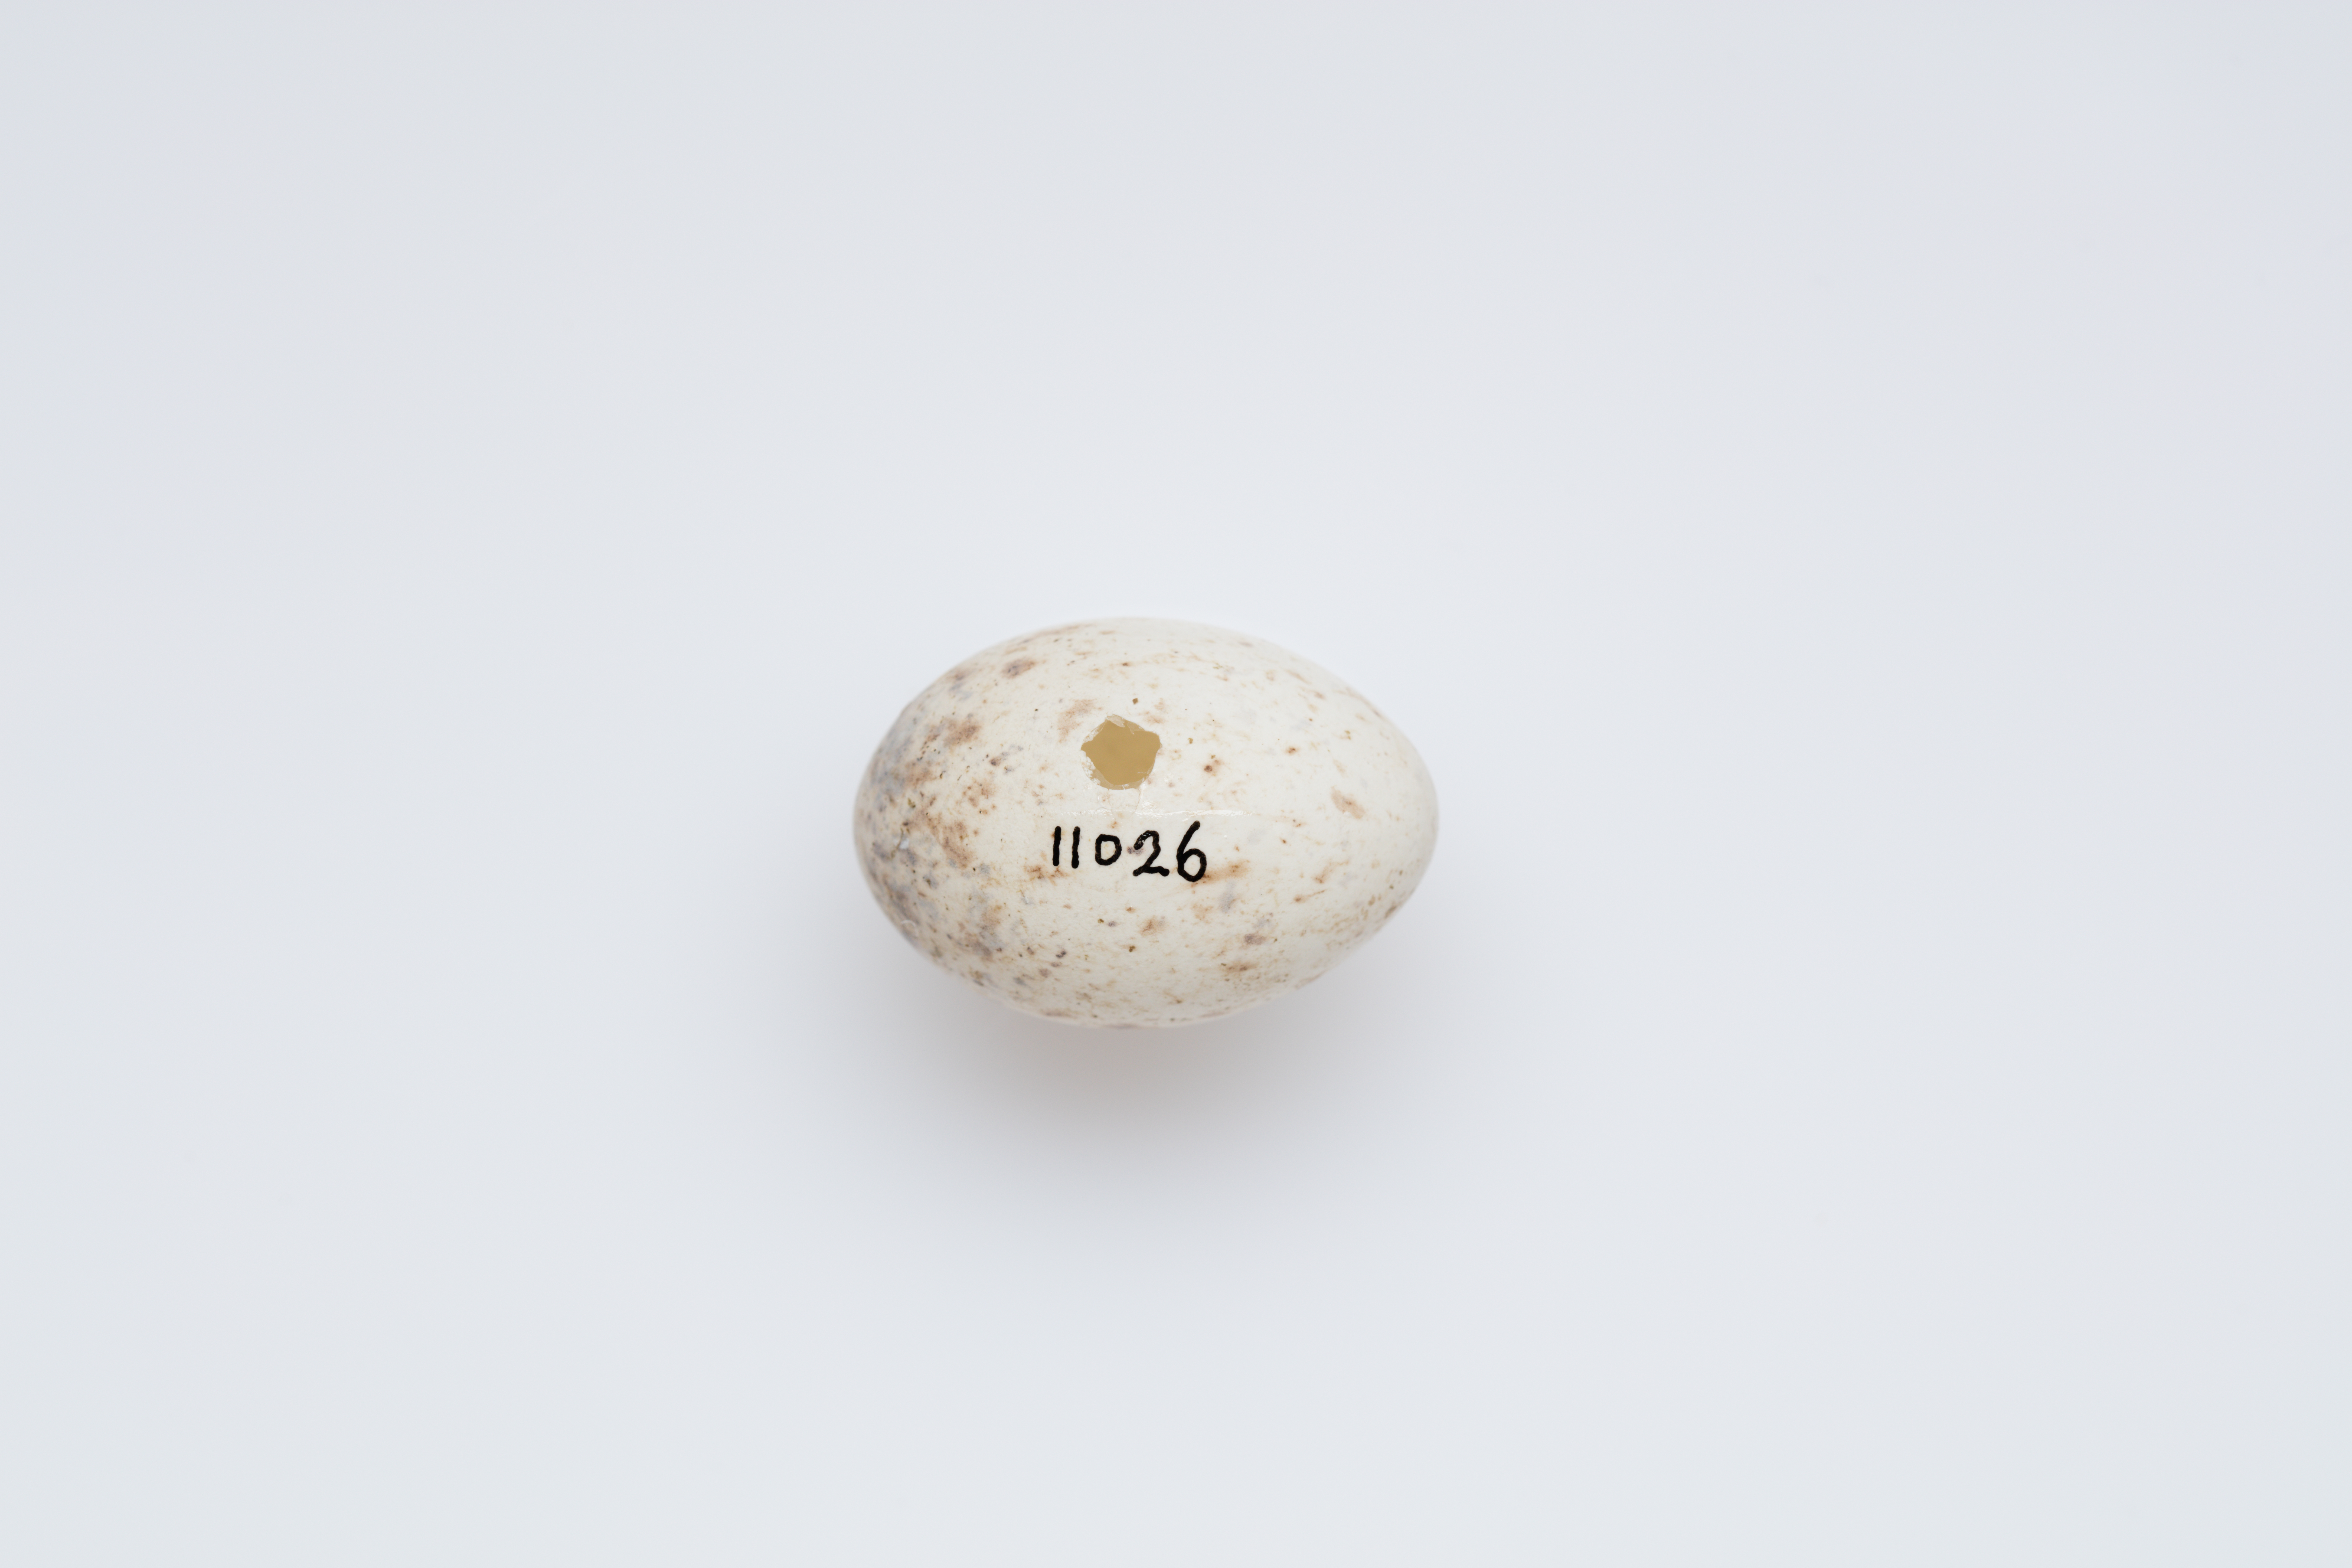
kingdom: Animalia
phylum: Chordata
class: Aves
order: Passeriformes
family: Petroicidae
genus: Petroica
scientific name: Petroica australis
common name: New zealand robin
